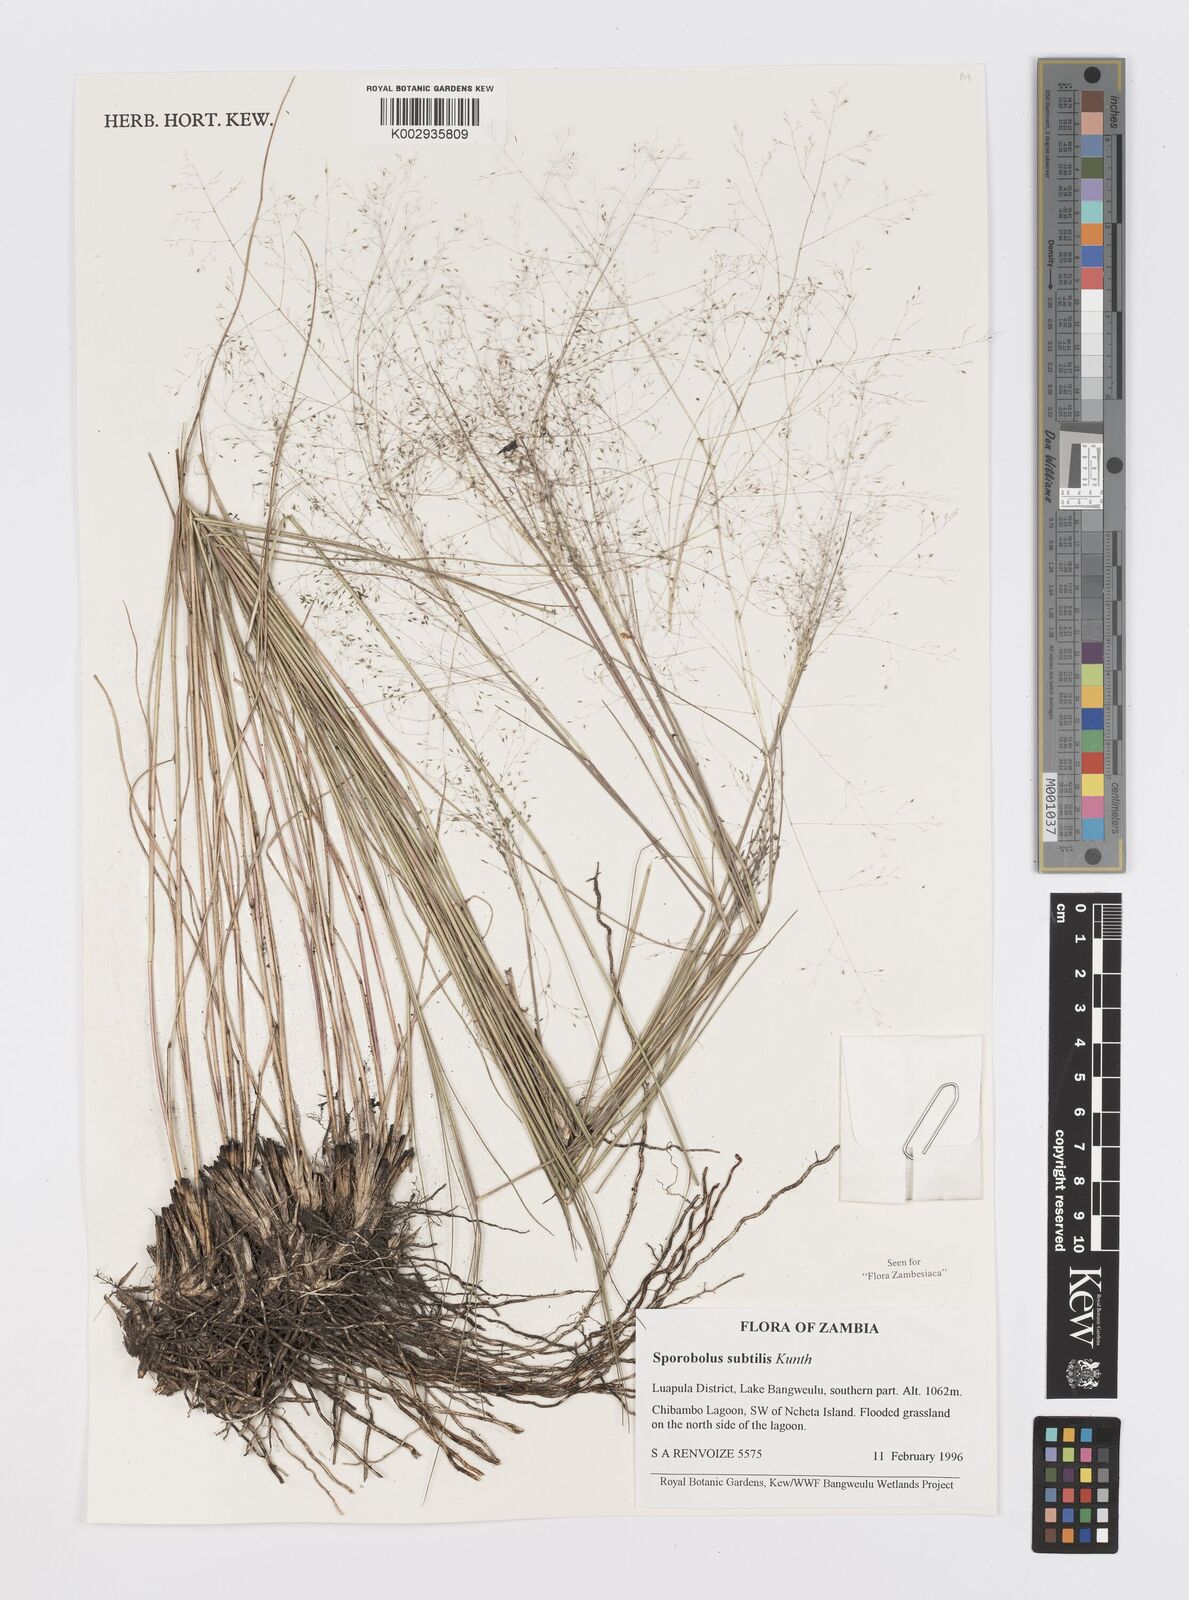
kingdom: Plantae
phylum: Tracheophyta
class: Liliopsida
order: Poales
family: Poaceae
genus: Sporobolus
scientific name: Sporobolus subtilis
